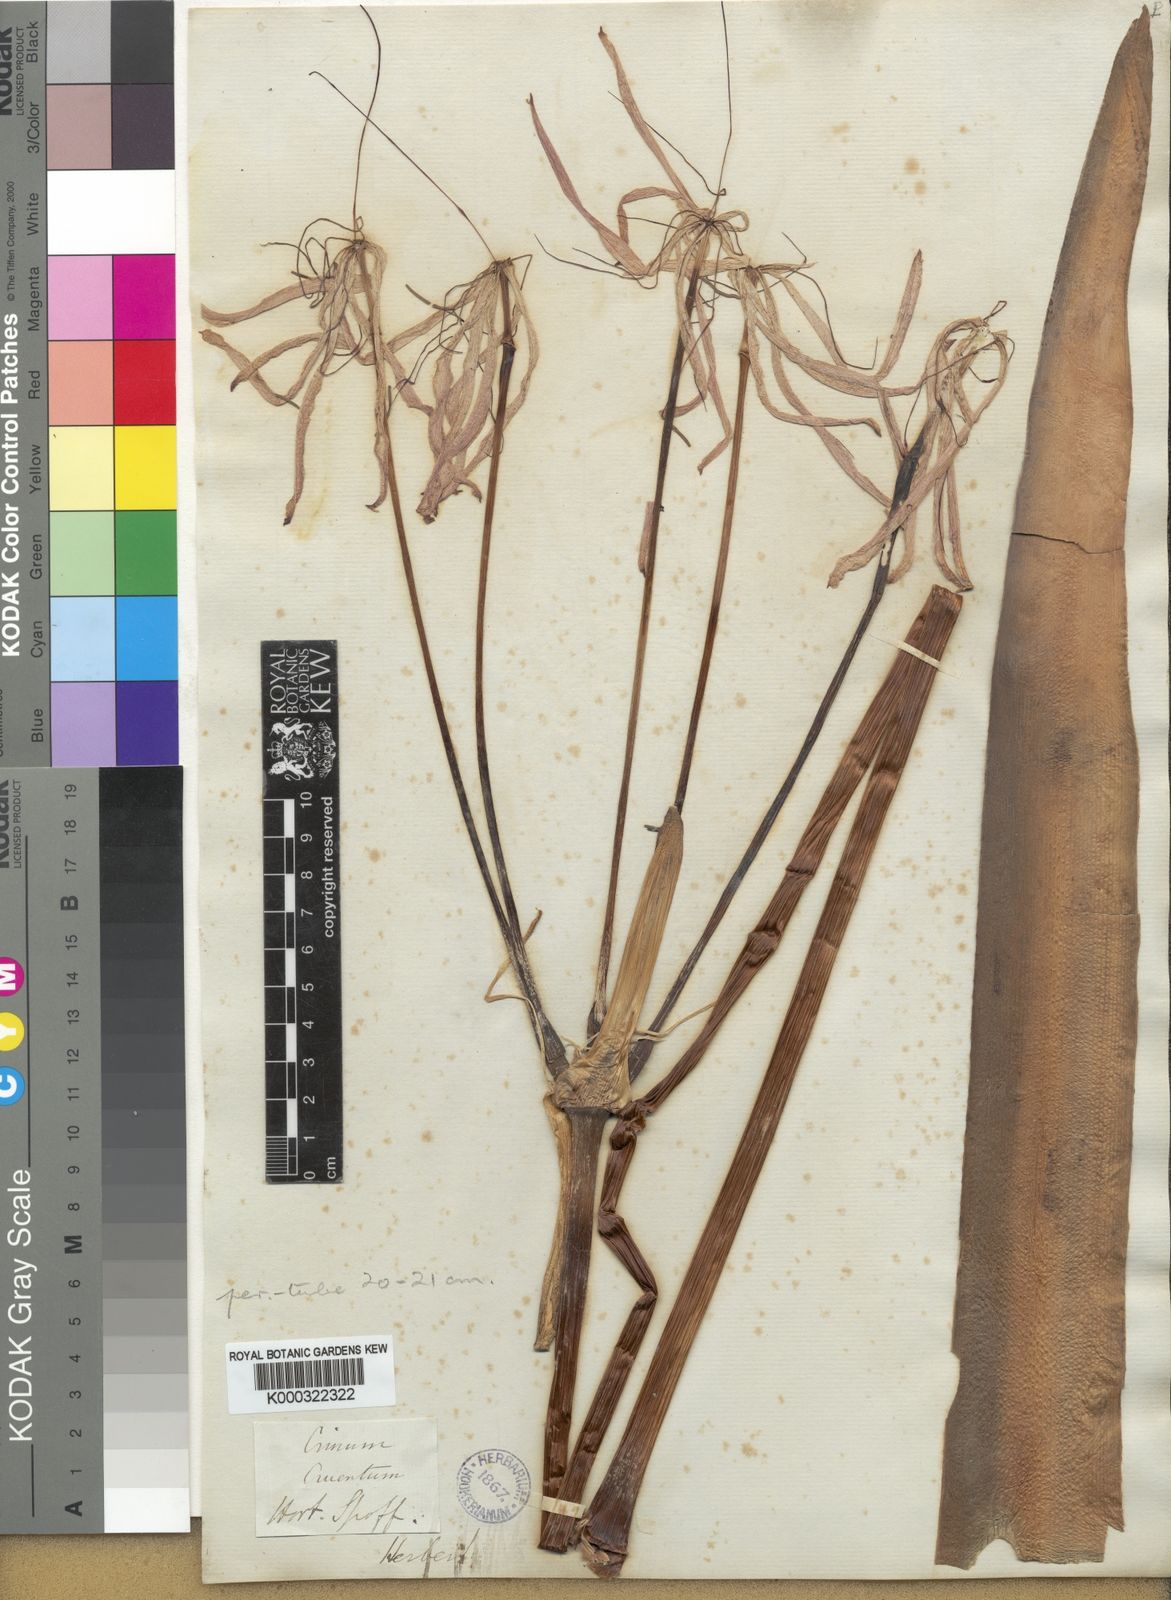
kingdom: Plantae
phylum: Tracheophyta
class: Liliopsida
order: Asparagales
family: Amaryllidaceae
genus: Crinum
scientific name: Crinum erubescens
